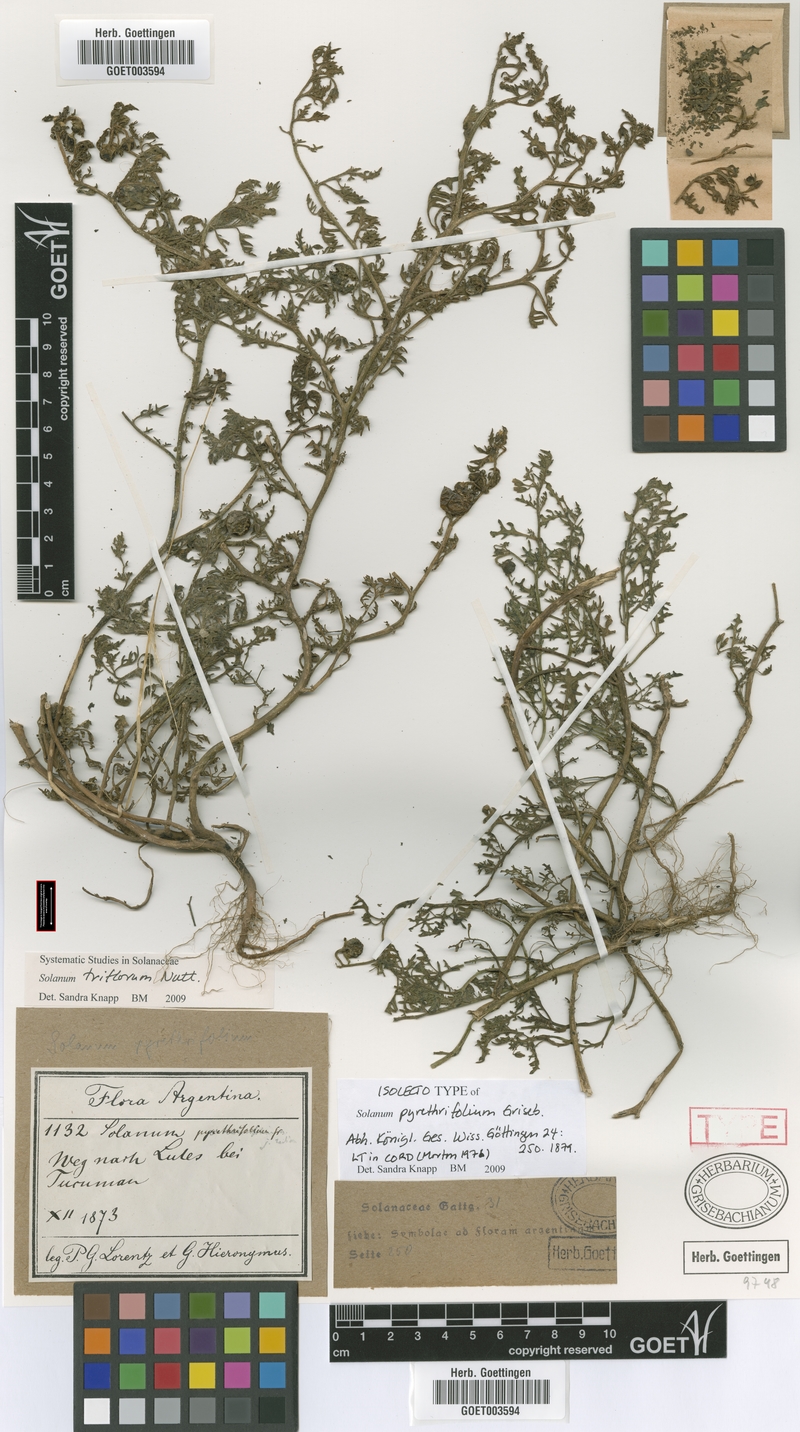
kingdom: Plantae
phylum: Tracheophyta
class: Magnoliopsida
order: Solanales
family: Solanaceae
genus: Solanum
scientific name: Solanum triflorum
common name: Small nightshade
